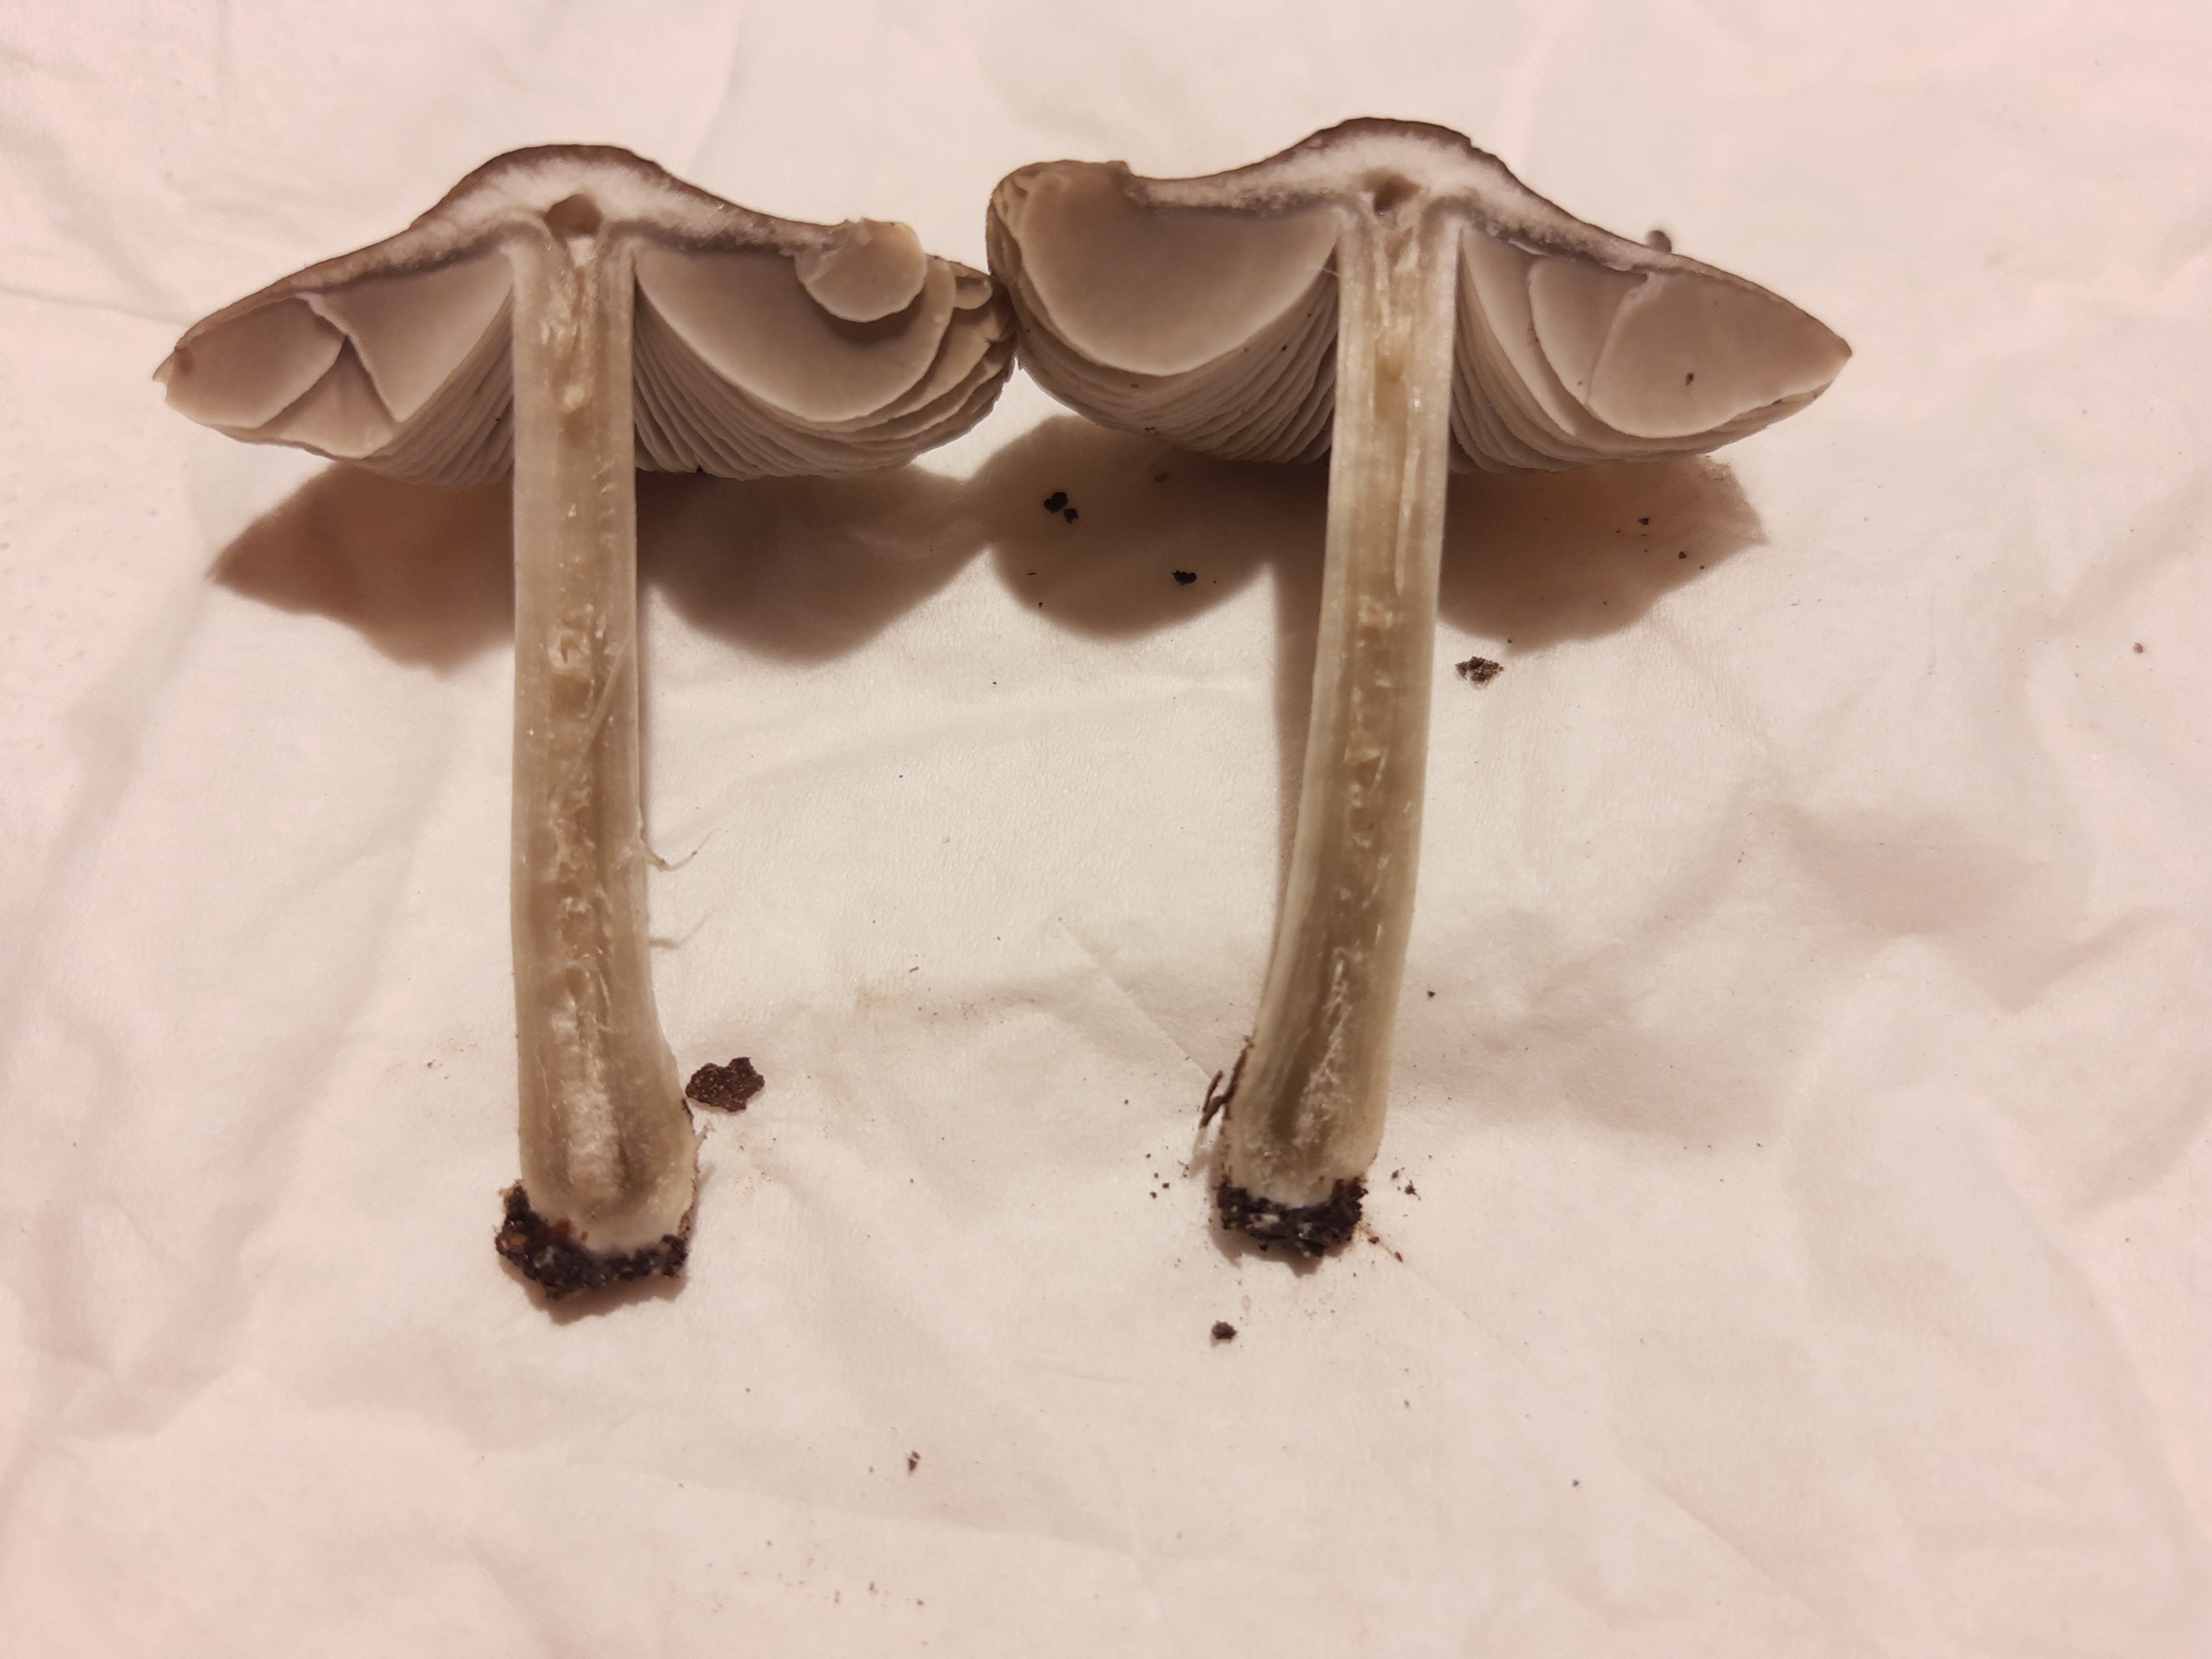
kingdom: Fungi
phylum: Basidiomycota
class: Agaricomycetes
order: Agaricales
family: Pluteaceae
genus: Pluteus
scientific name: Pluteus
